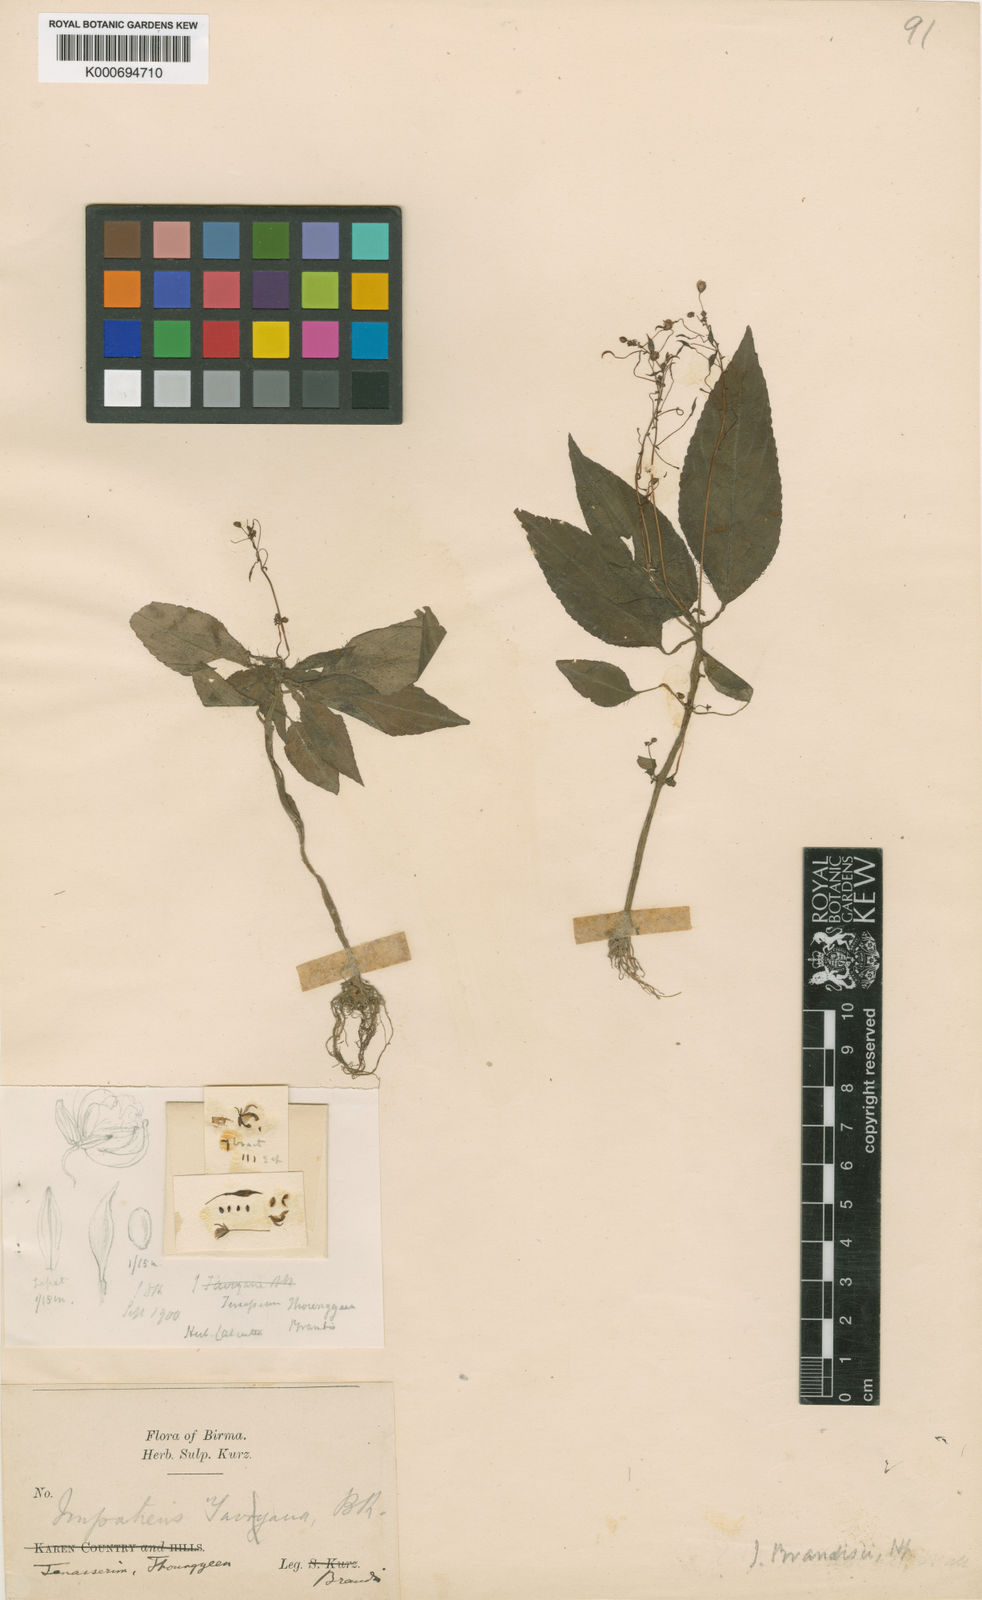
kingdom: Plantae
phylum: Tracheophyta
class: Magnoliopsida
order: Ericales
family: Balsaminaceae
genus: Impatiens
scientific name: Impatiens circaeoides
